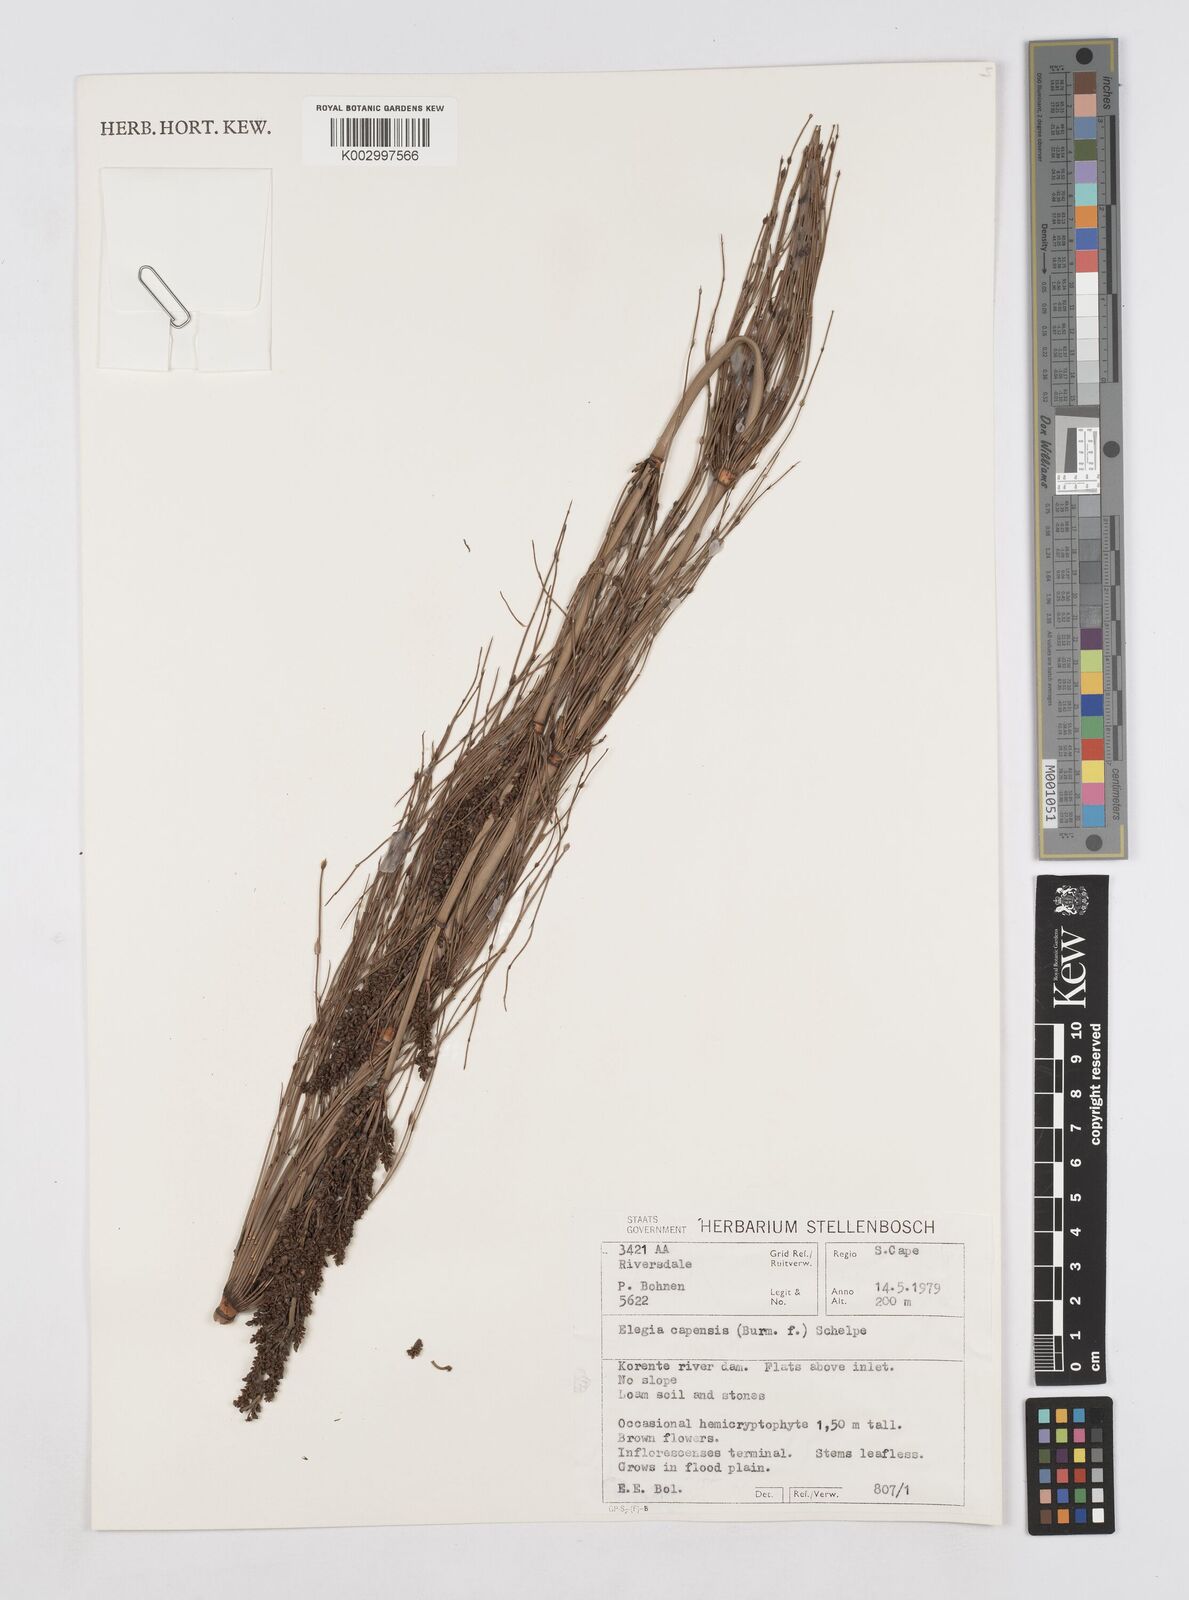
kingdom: Plantae
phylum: Tracheophyta
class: Liliopsida
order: Poales
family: Restionaceae
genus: Elegia
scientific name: Elegia capensis
